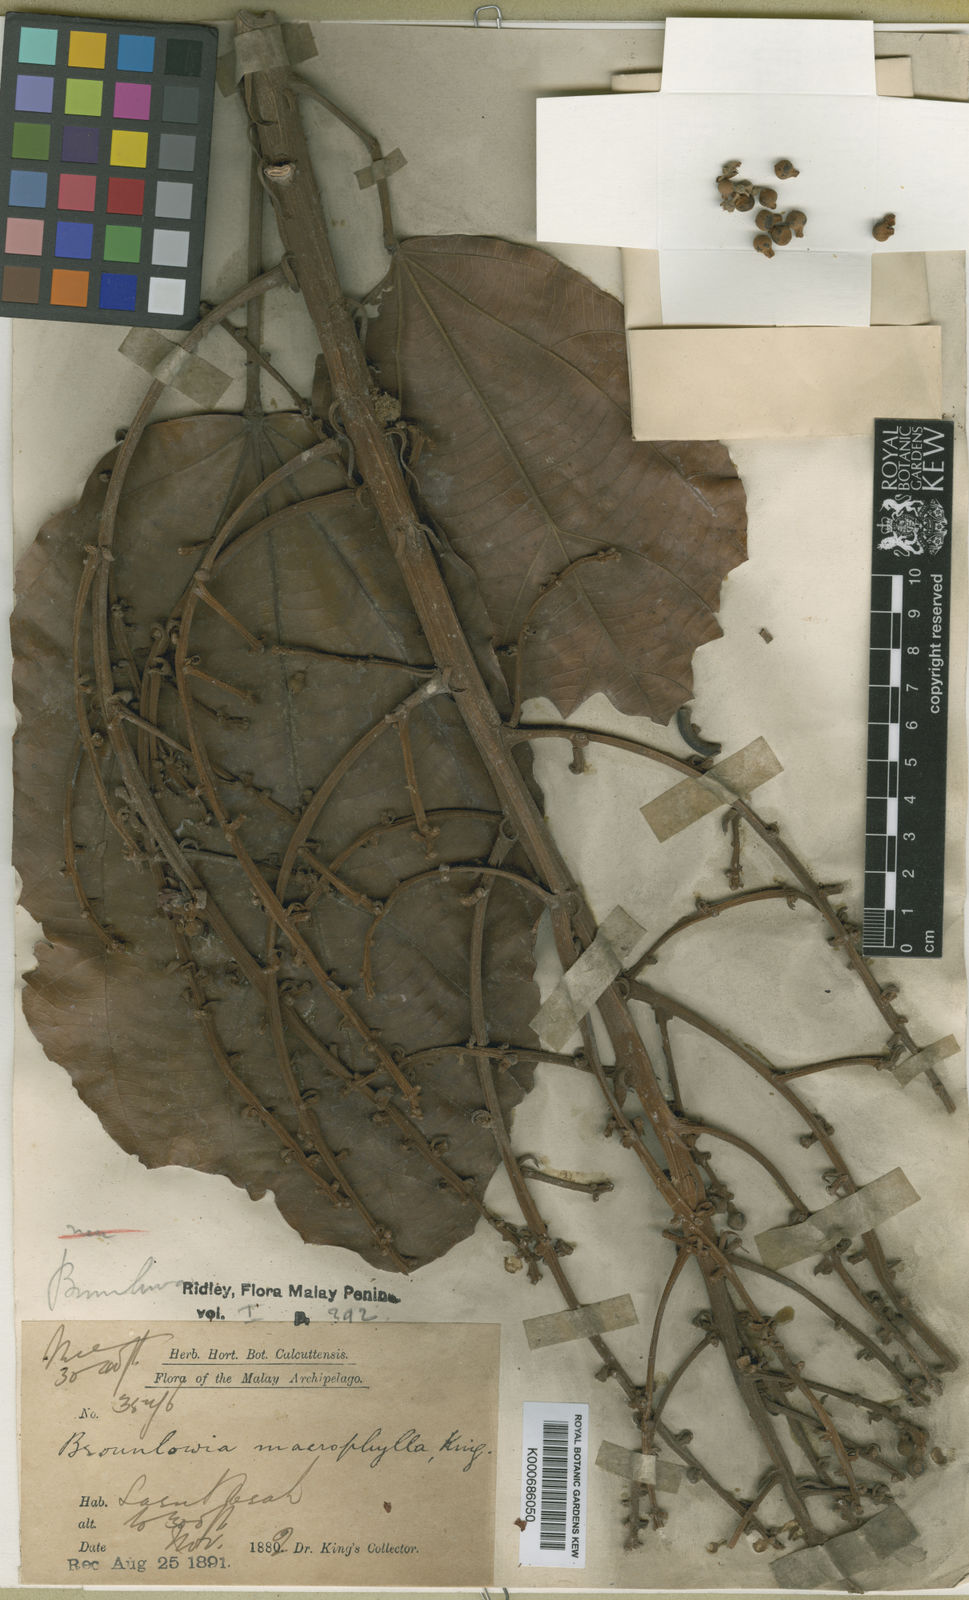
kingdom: Plantae
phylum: Tracheophyta
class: Magnoliopsida
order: Malvales
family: Malvaceae
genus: Brownlowia
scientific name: Brownlowia macrophylla
